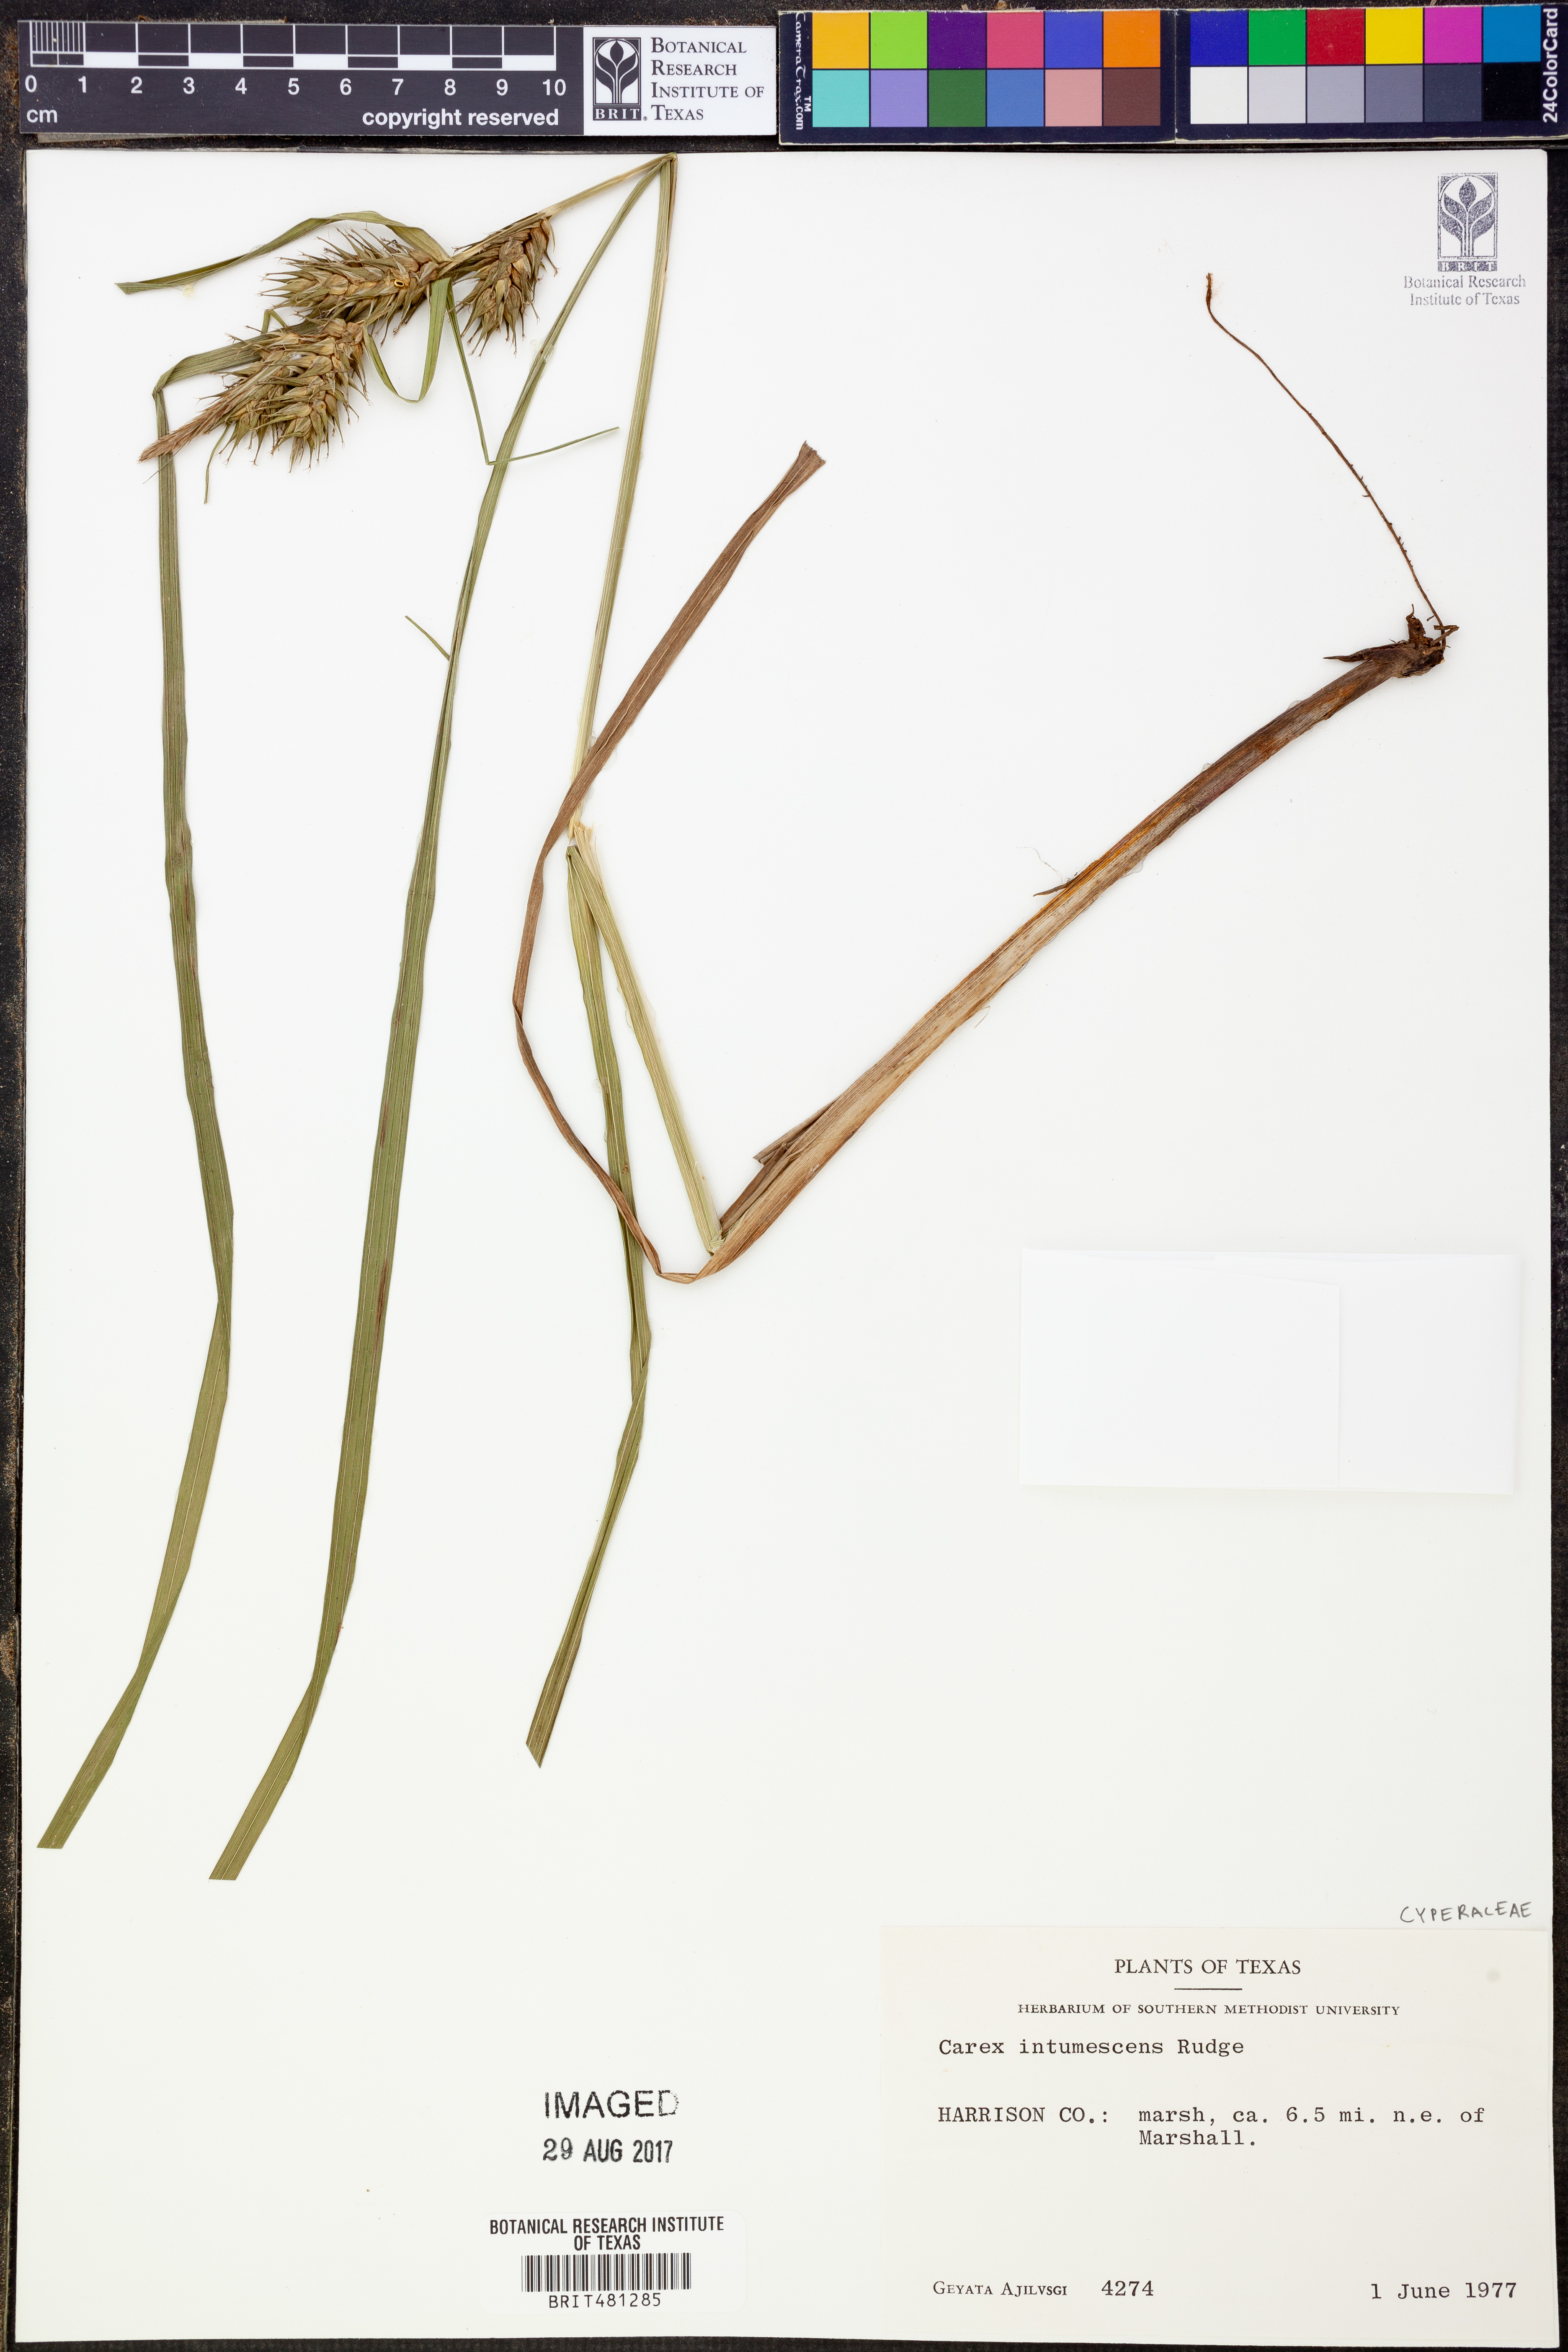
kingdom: Plantae
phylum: Tracheophyta
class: Liliopsida
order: Poales
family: Cyperaceae
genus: Carex
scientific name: Carex intumescens
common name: Greater bladder sedge
